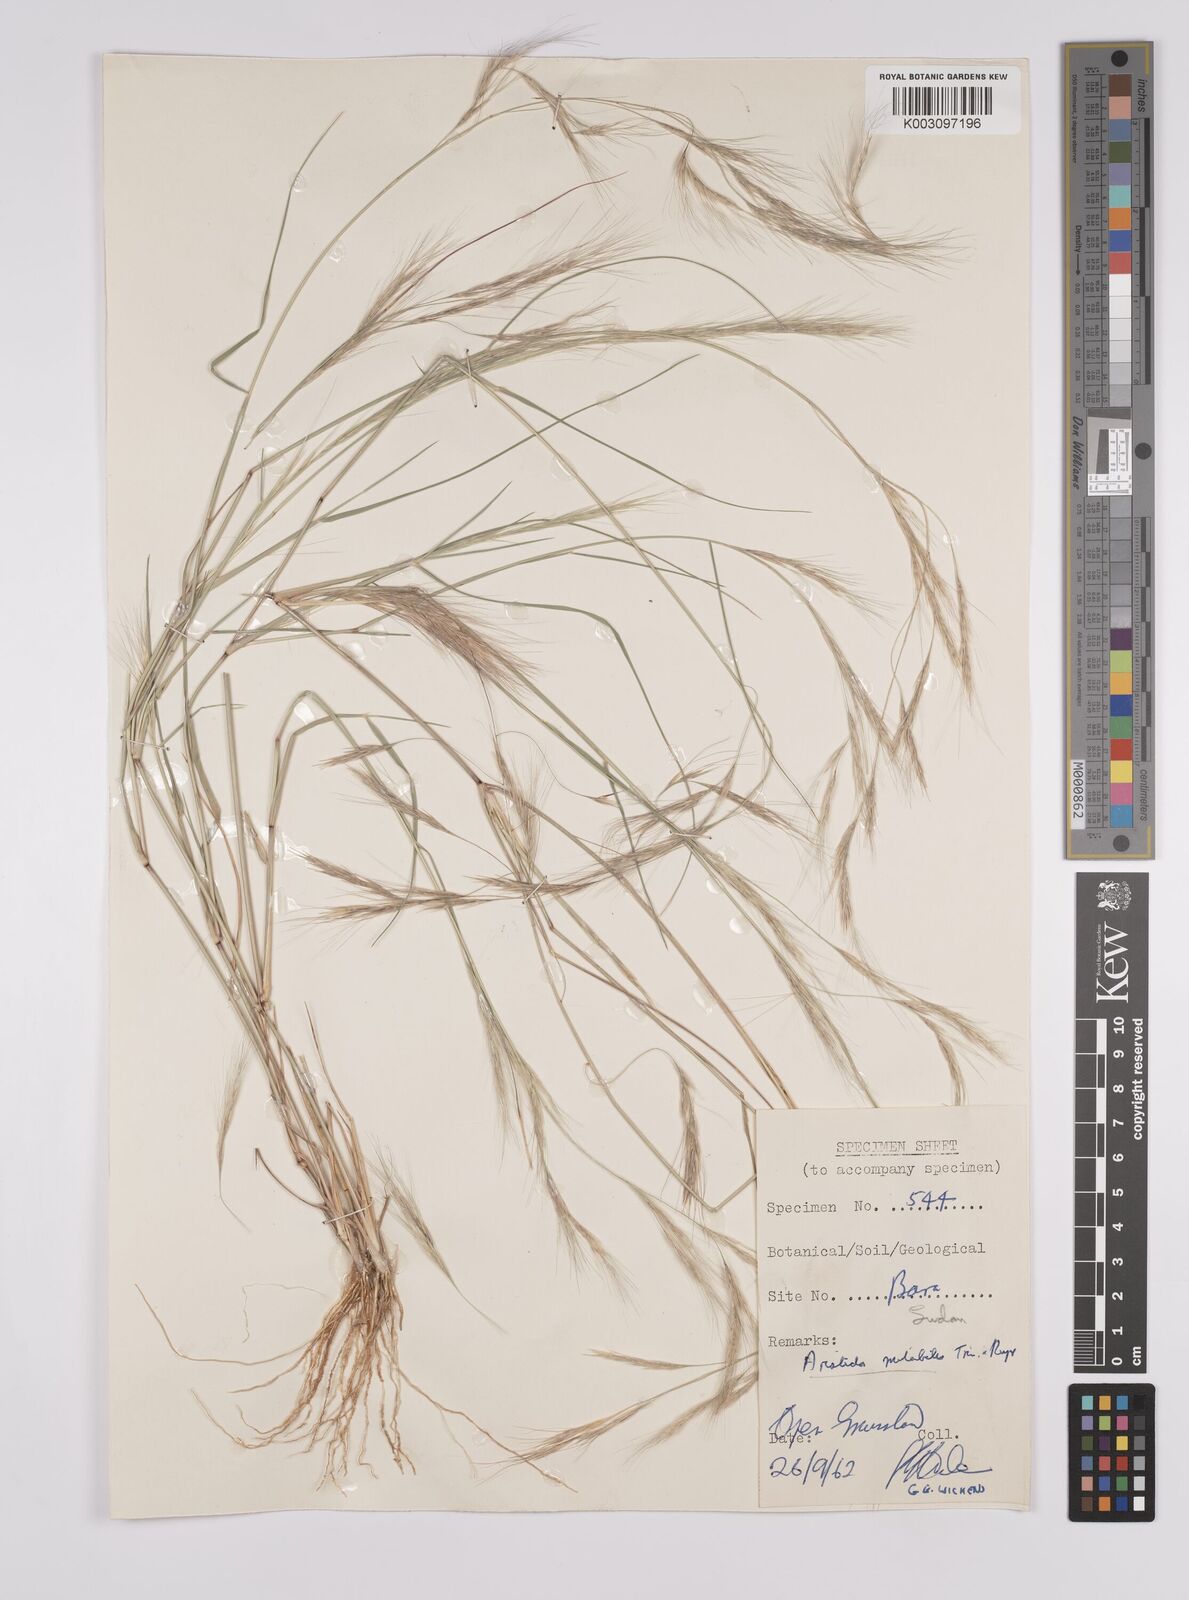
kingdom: Plantae
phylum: Tracheophyta
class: Liliopsida
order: Poales
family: Poaceae
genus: Aristida
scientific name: Aristida mutabilis
